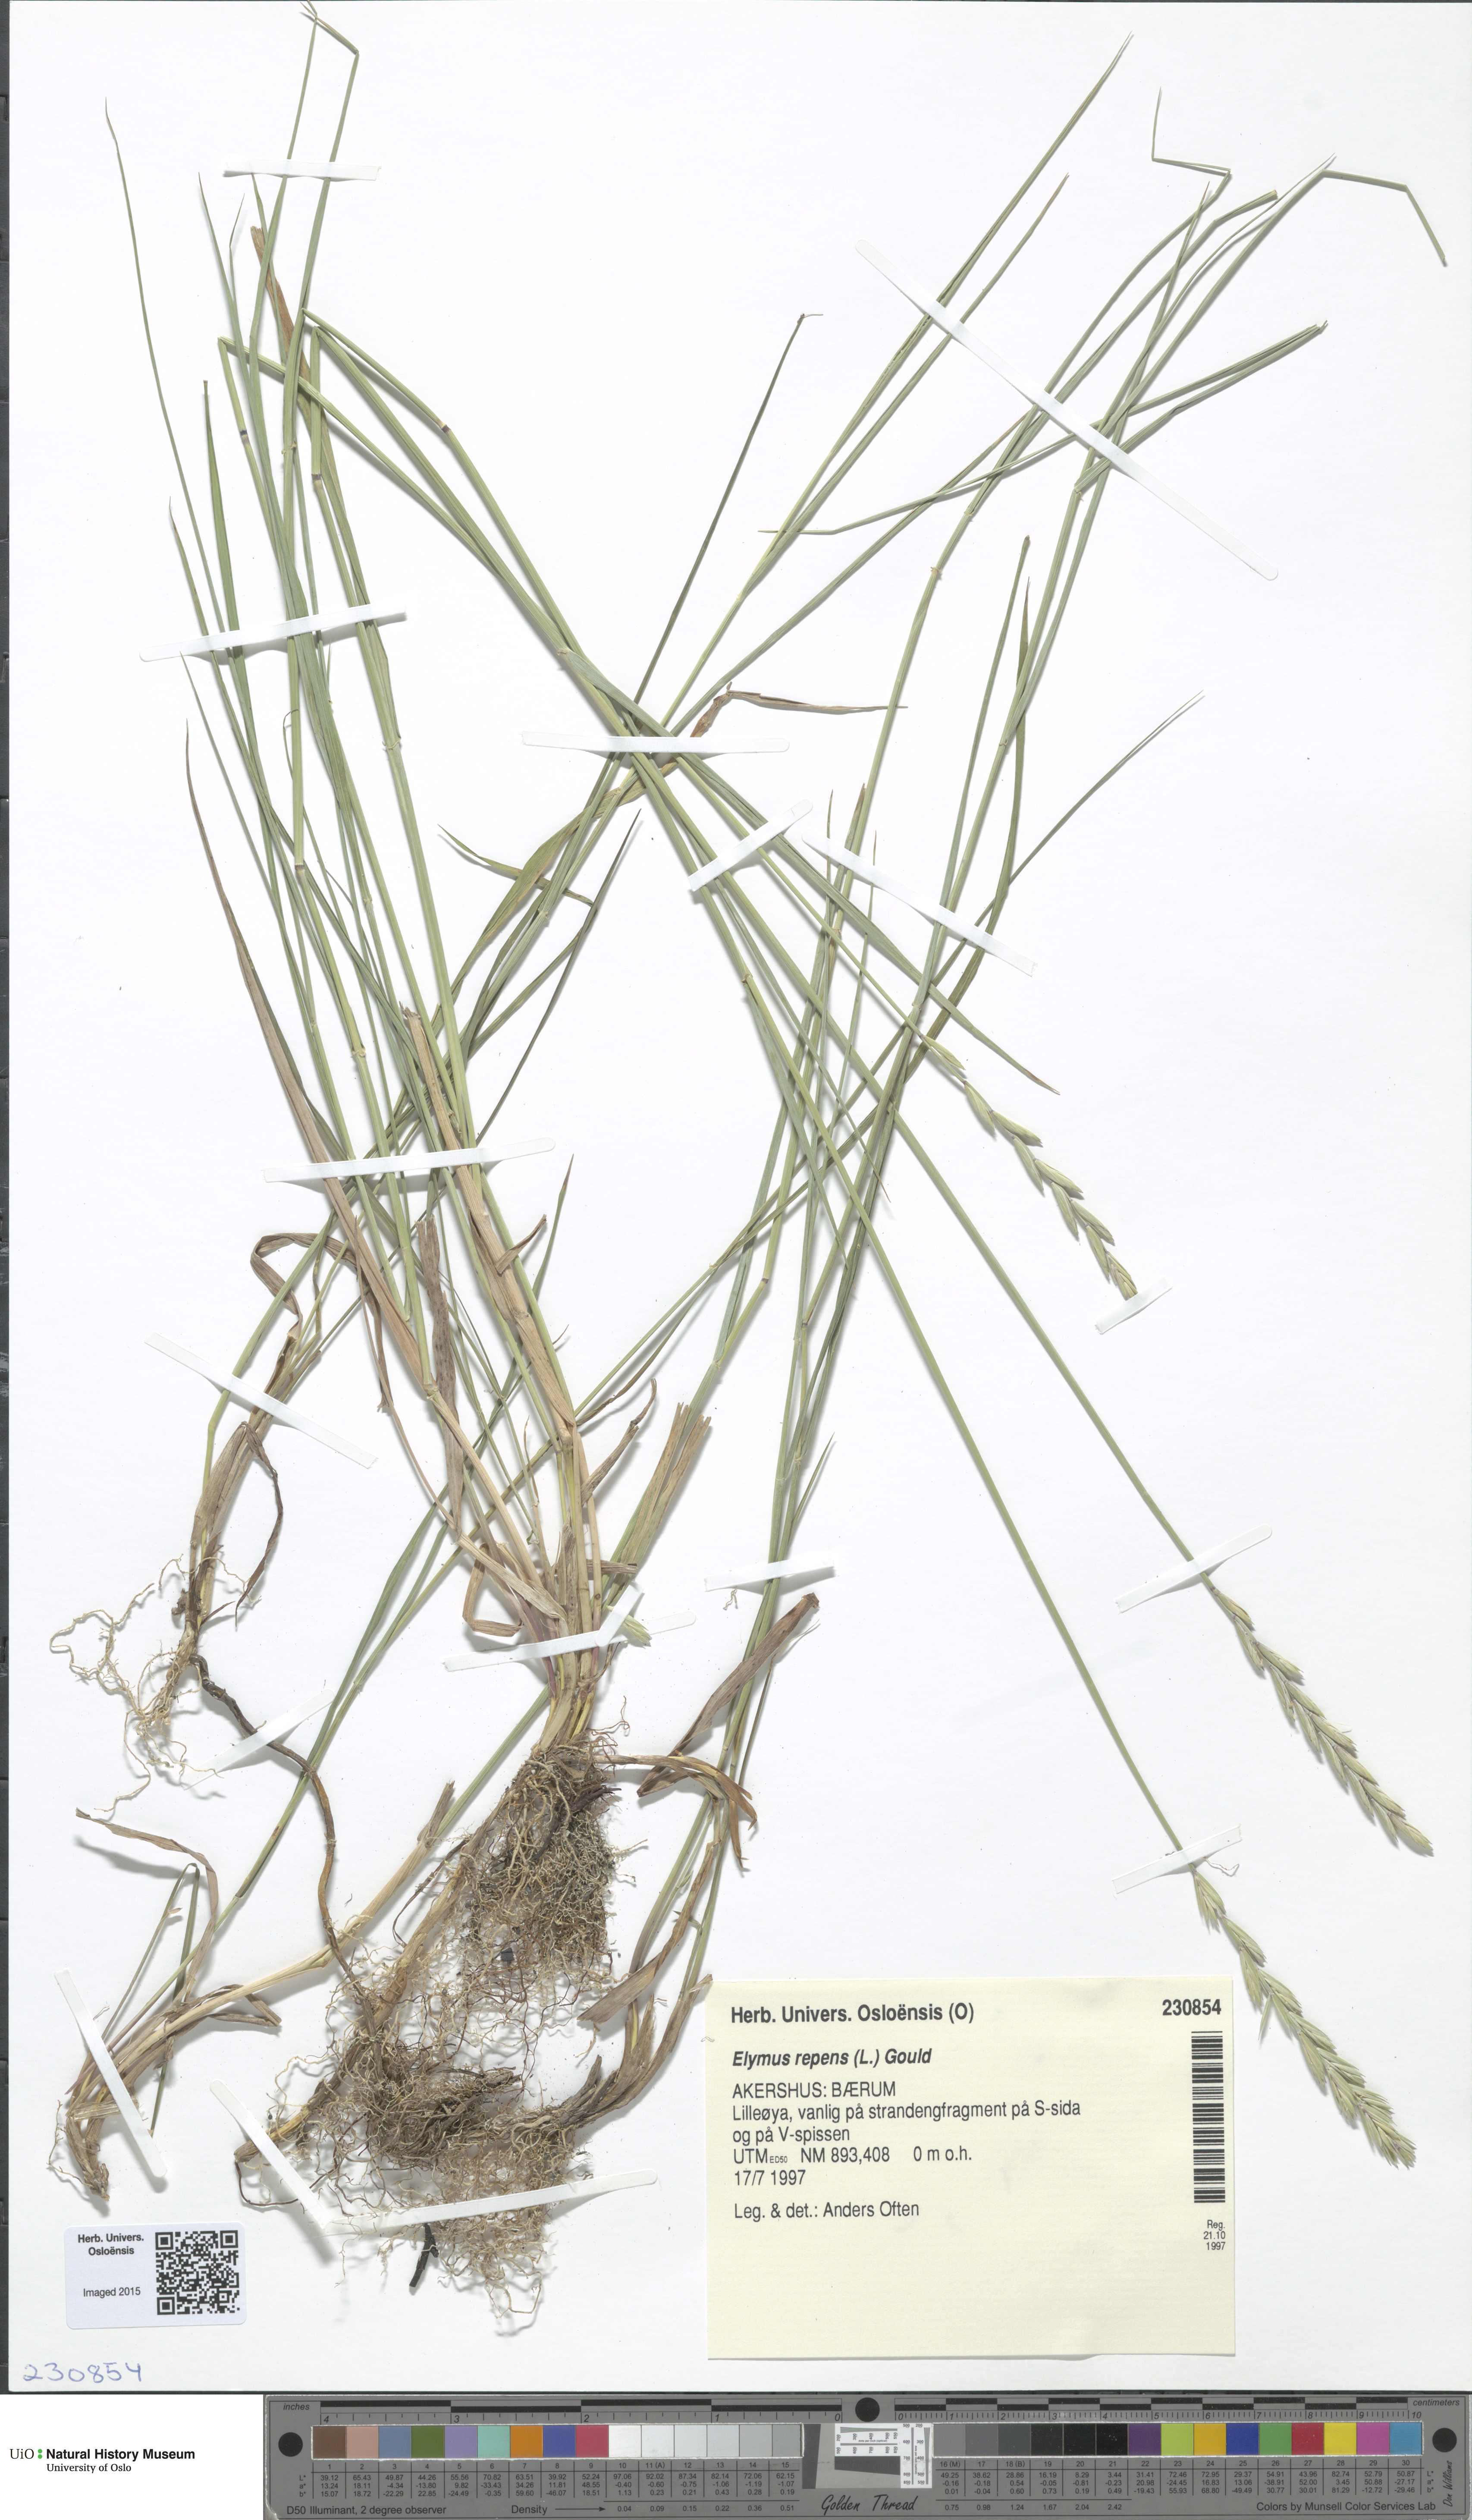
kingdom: Plantae
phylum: Tracheophyta
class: Liliopsida
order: Poales
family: Poaceae
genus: Elymus
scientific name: Elymus repens
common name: Quackgrass
